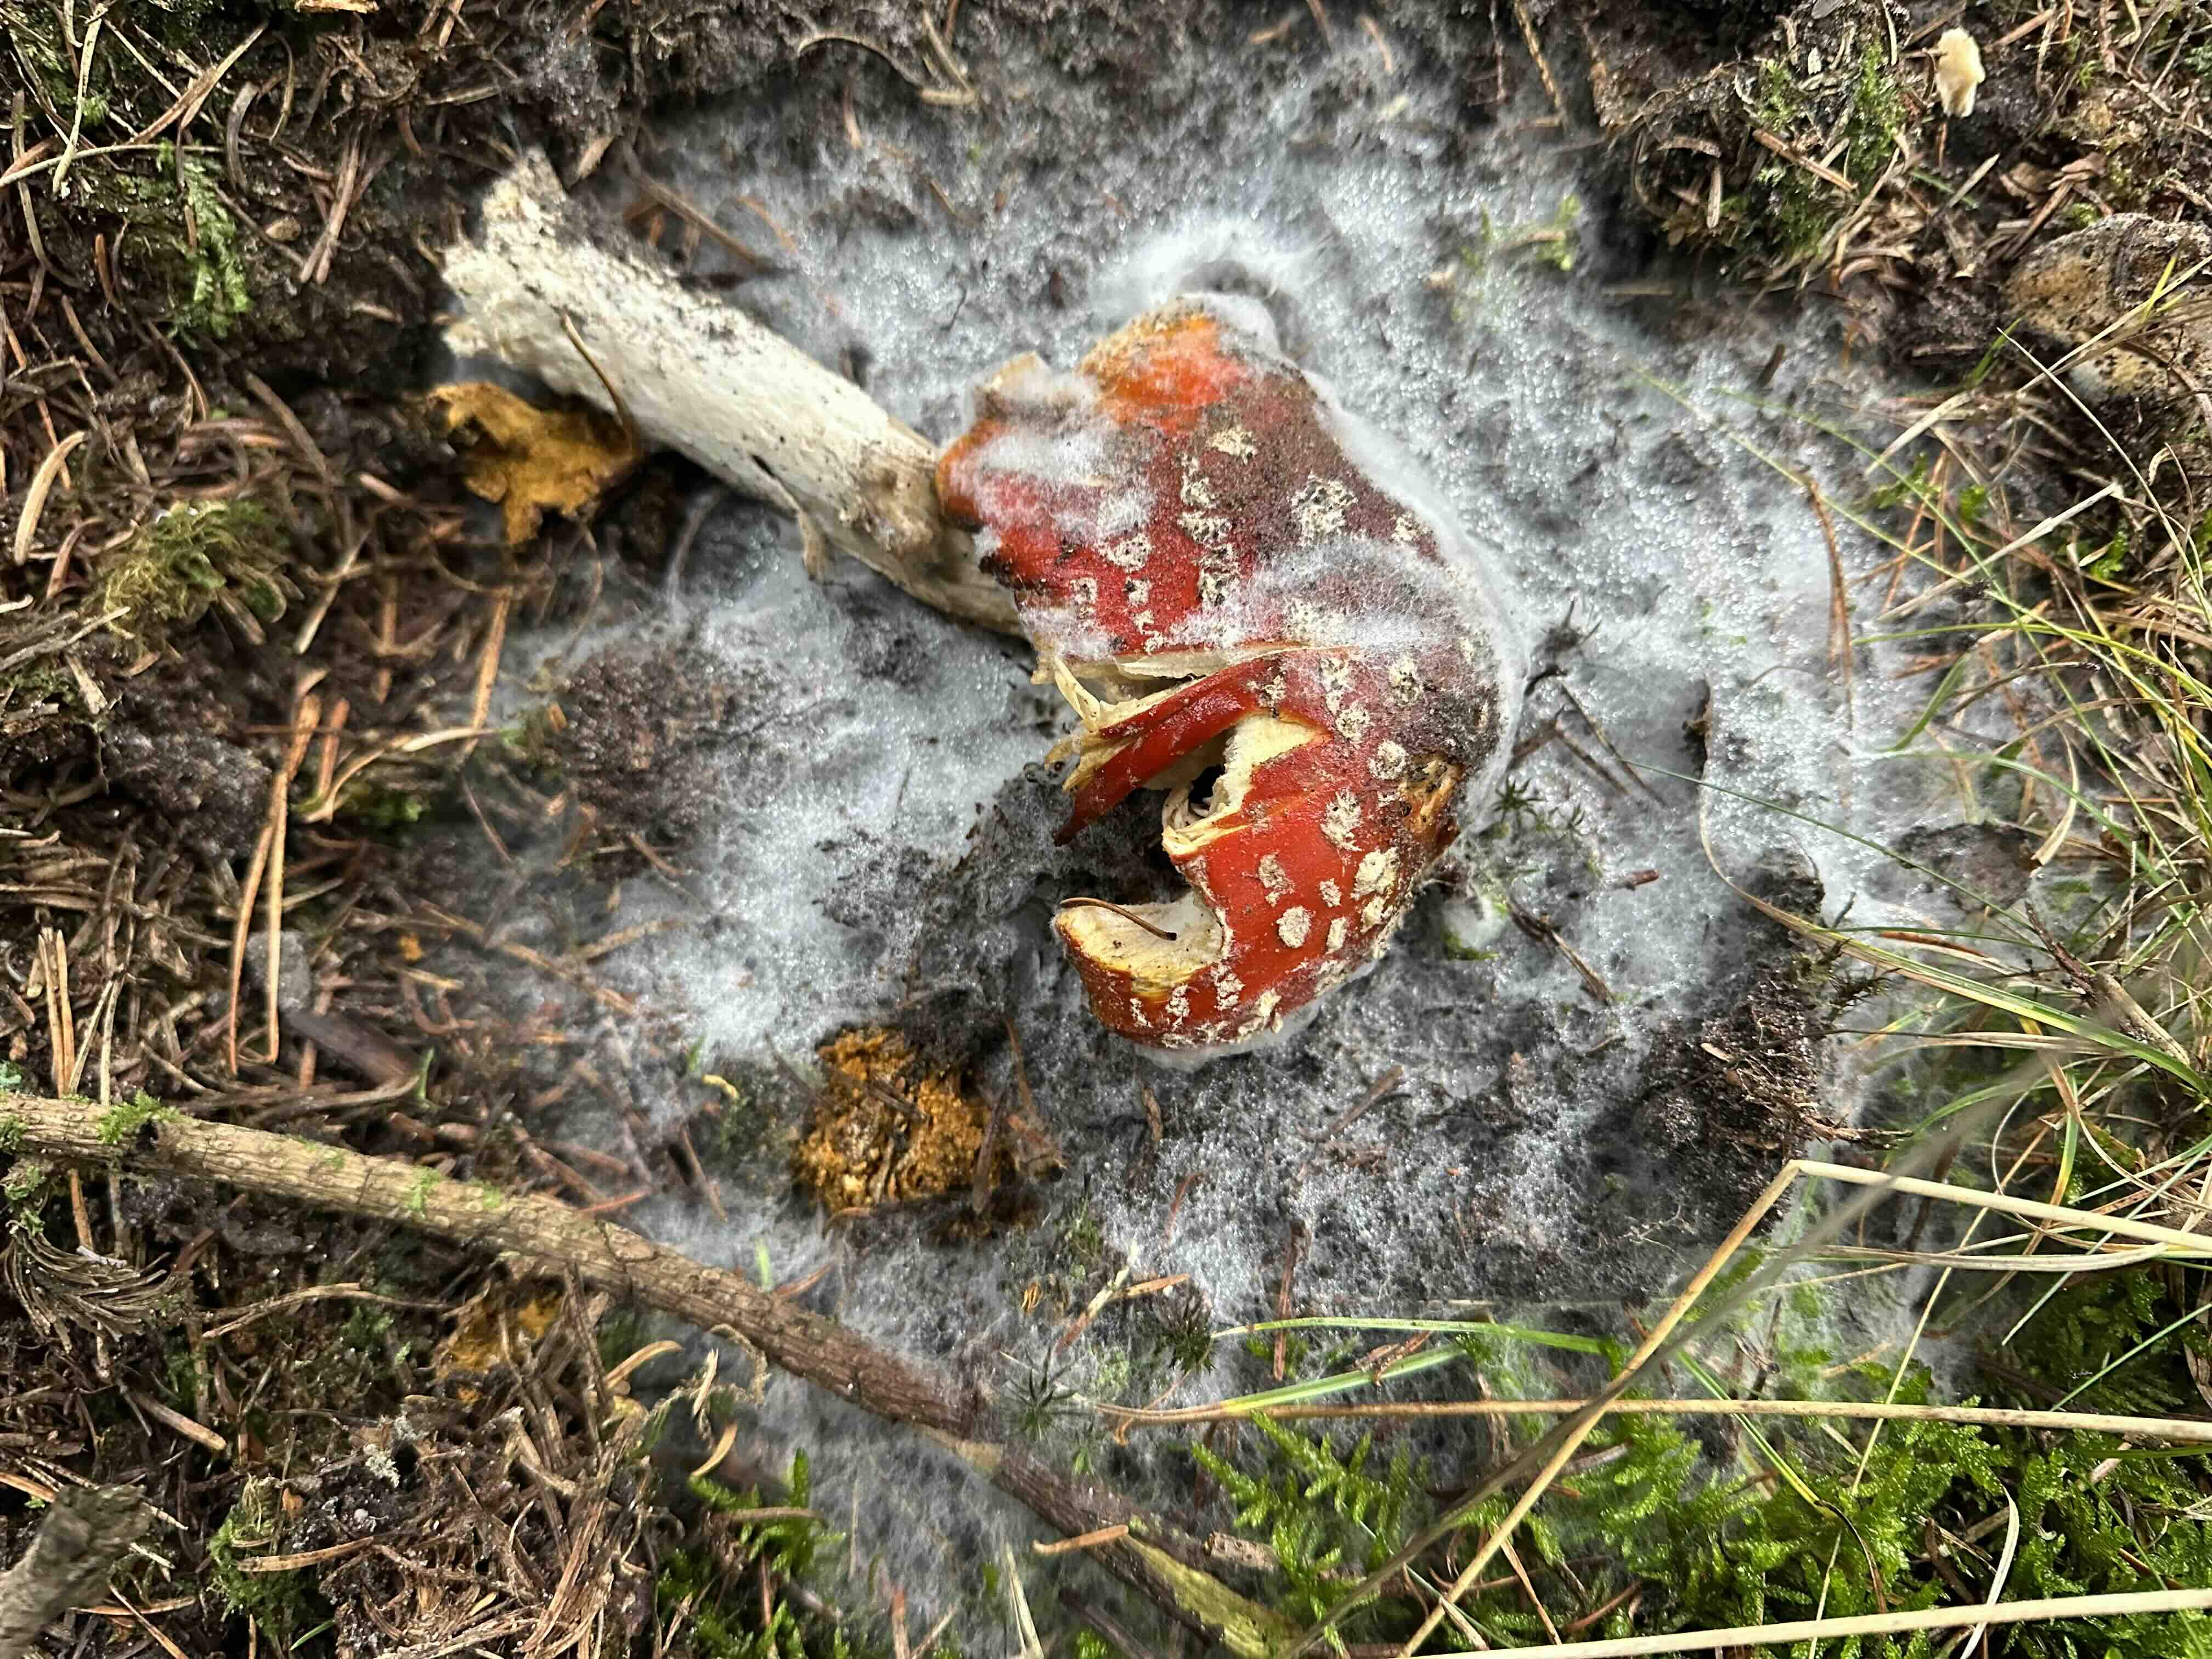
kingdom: Fungi
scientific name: Fungi
